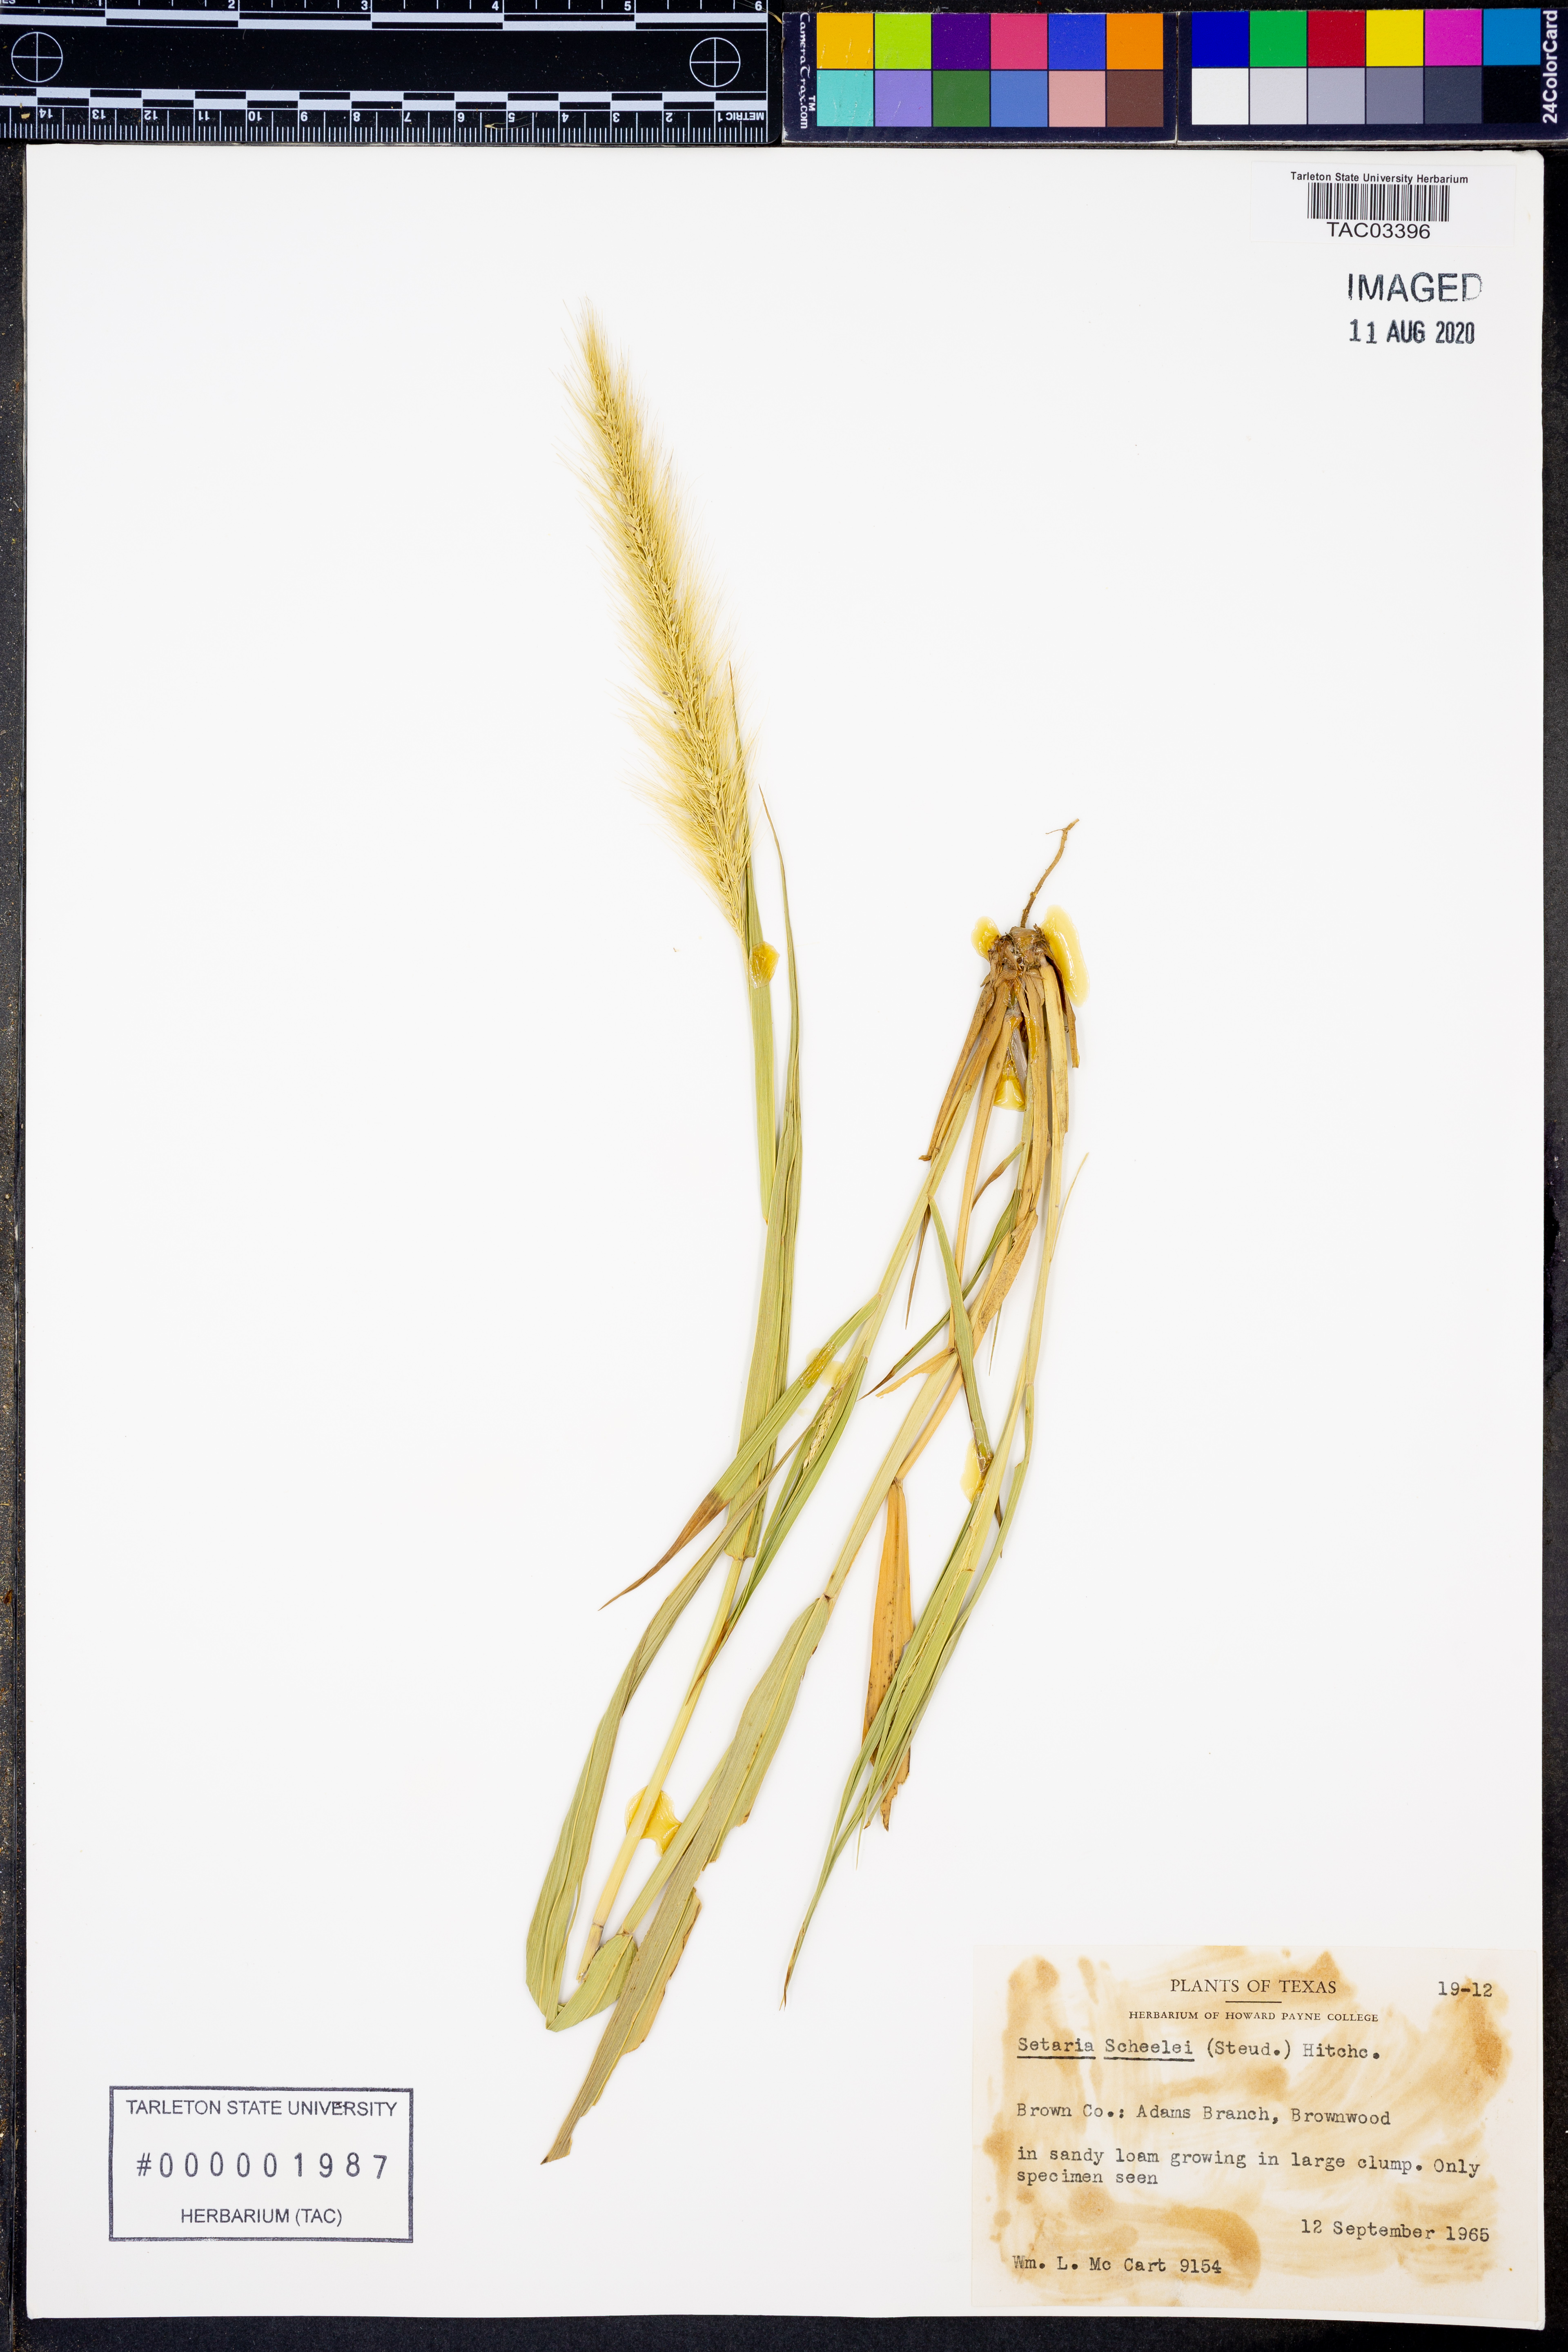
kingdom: Plantae
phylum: Tracheophyta
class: Liliopsida
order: Poales
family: Poaceae
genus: Setaria
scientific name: Setaria scheelei
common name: Southwestern bristle grass
